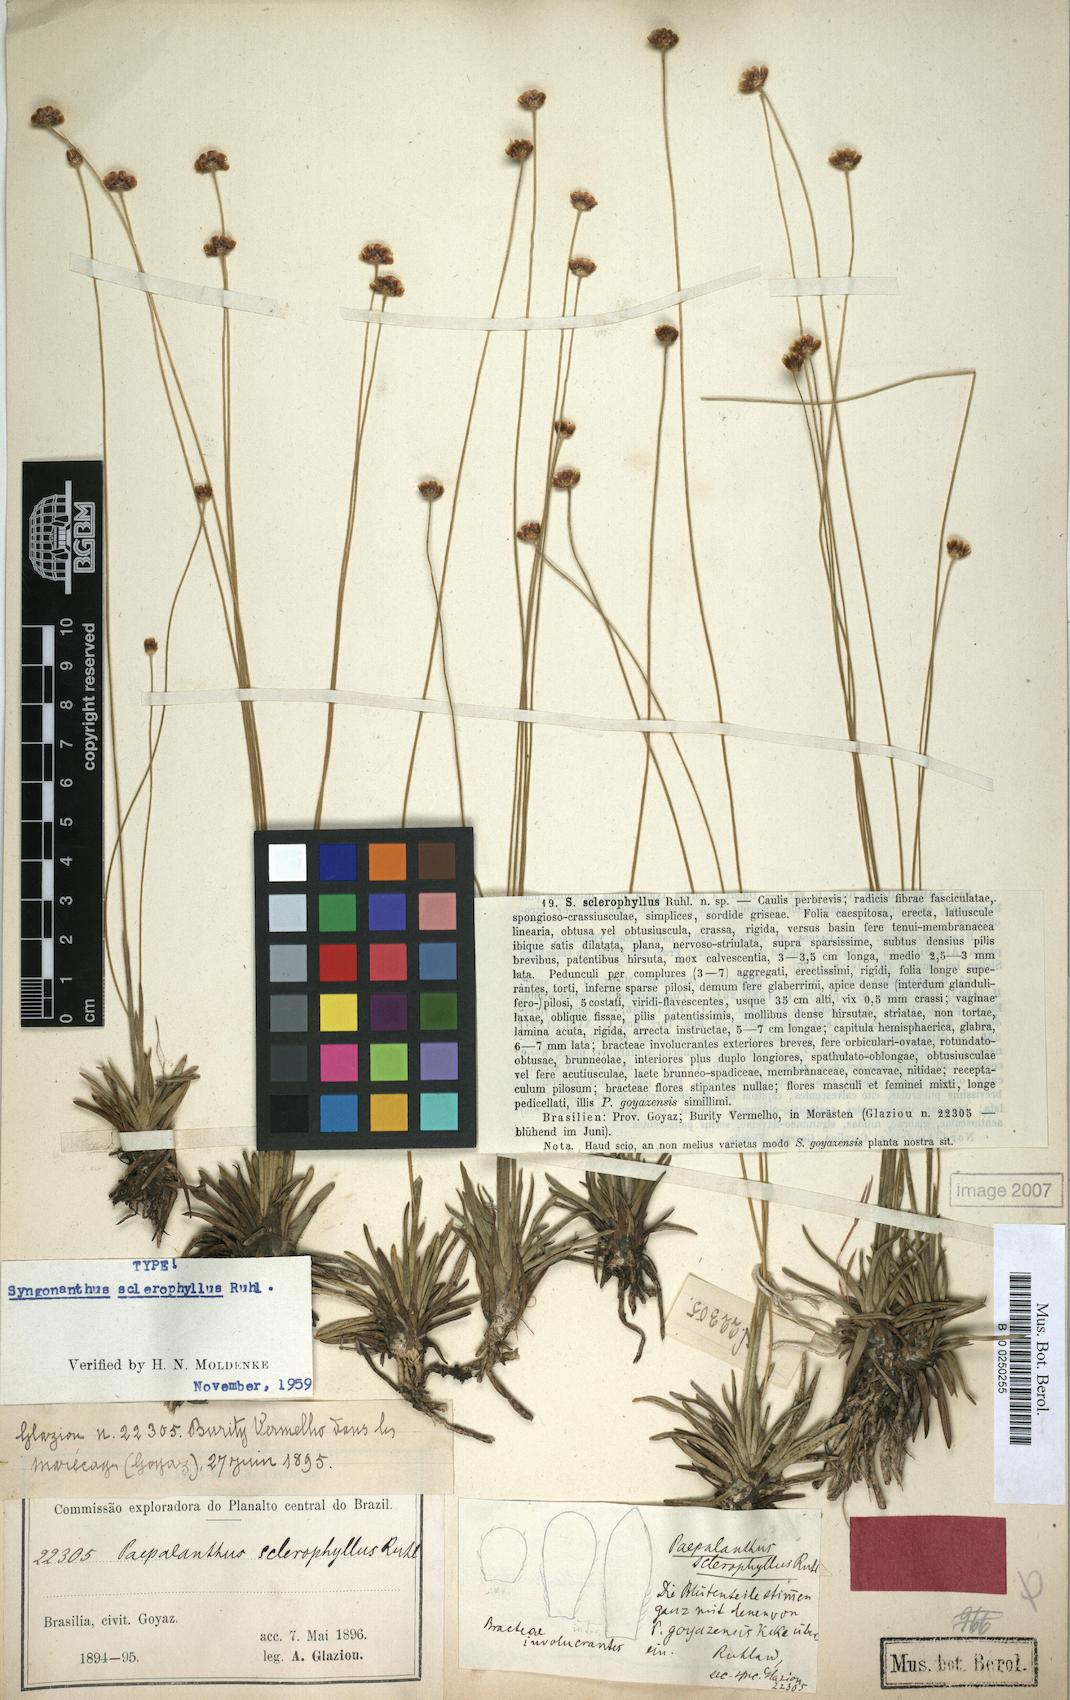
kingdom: Plantae
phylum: Tracheophyta
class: Liliopsida
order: Poales
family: Eriocaulaceae
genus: Syngonanthus
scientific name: Syngonanthus sclerophyllus
